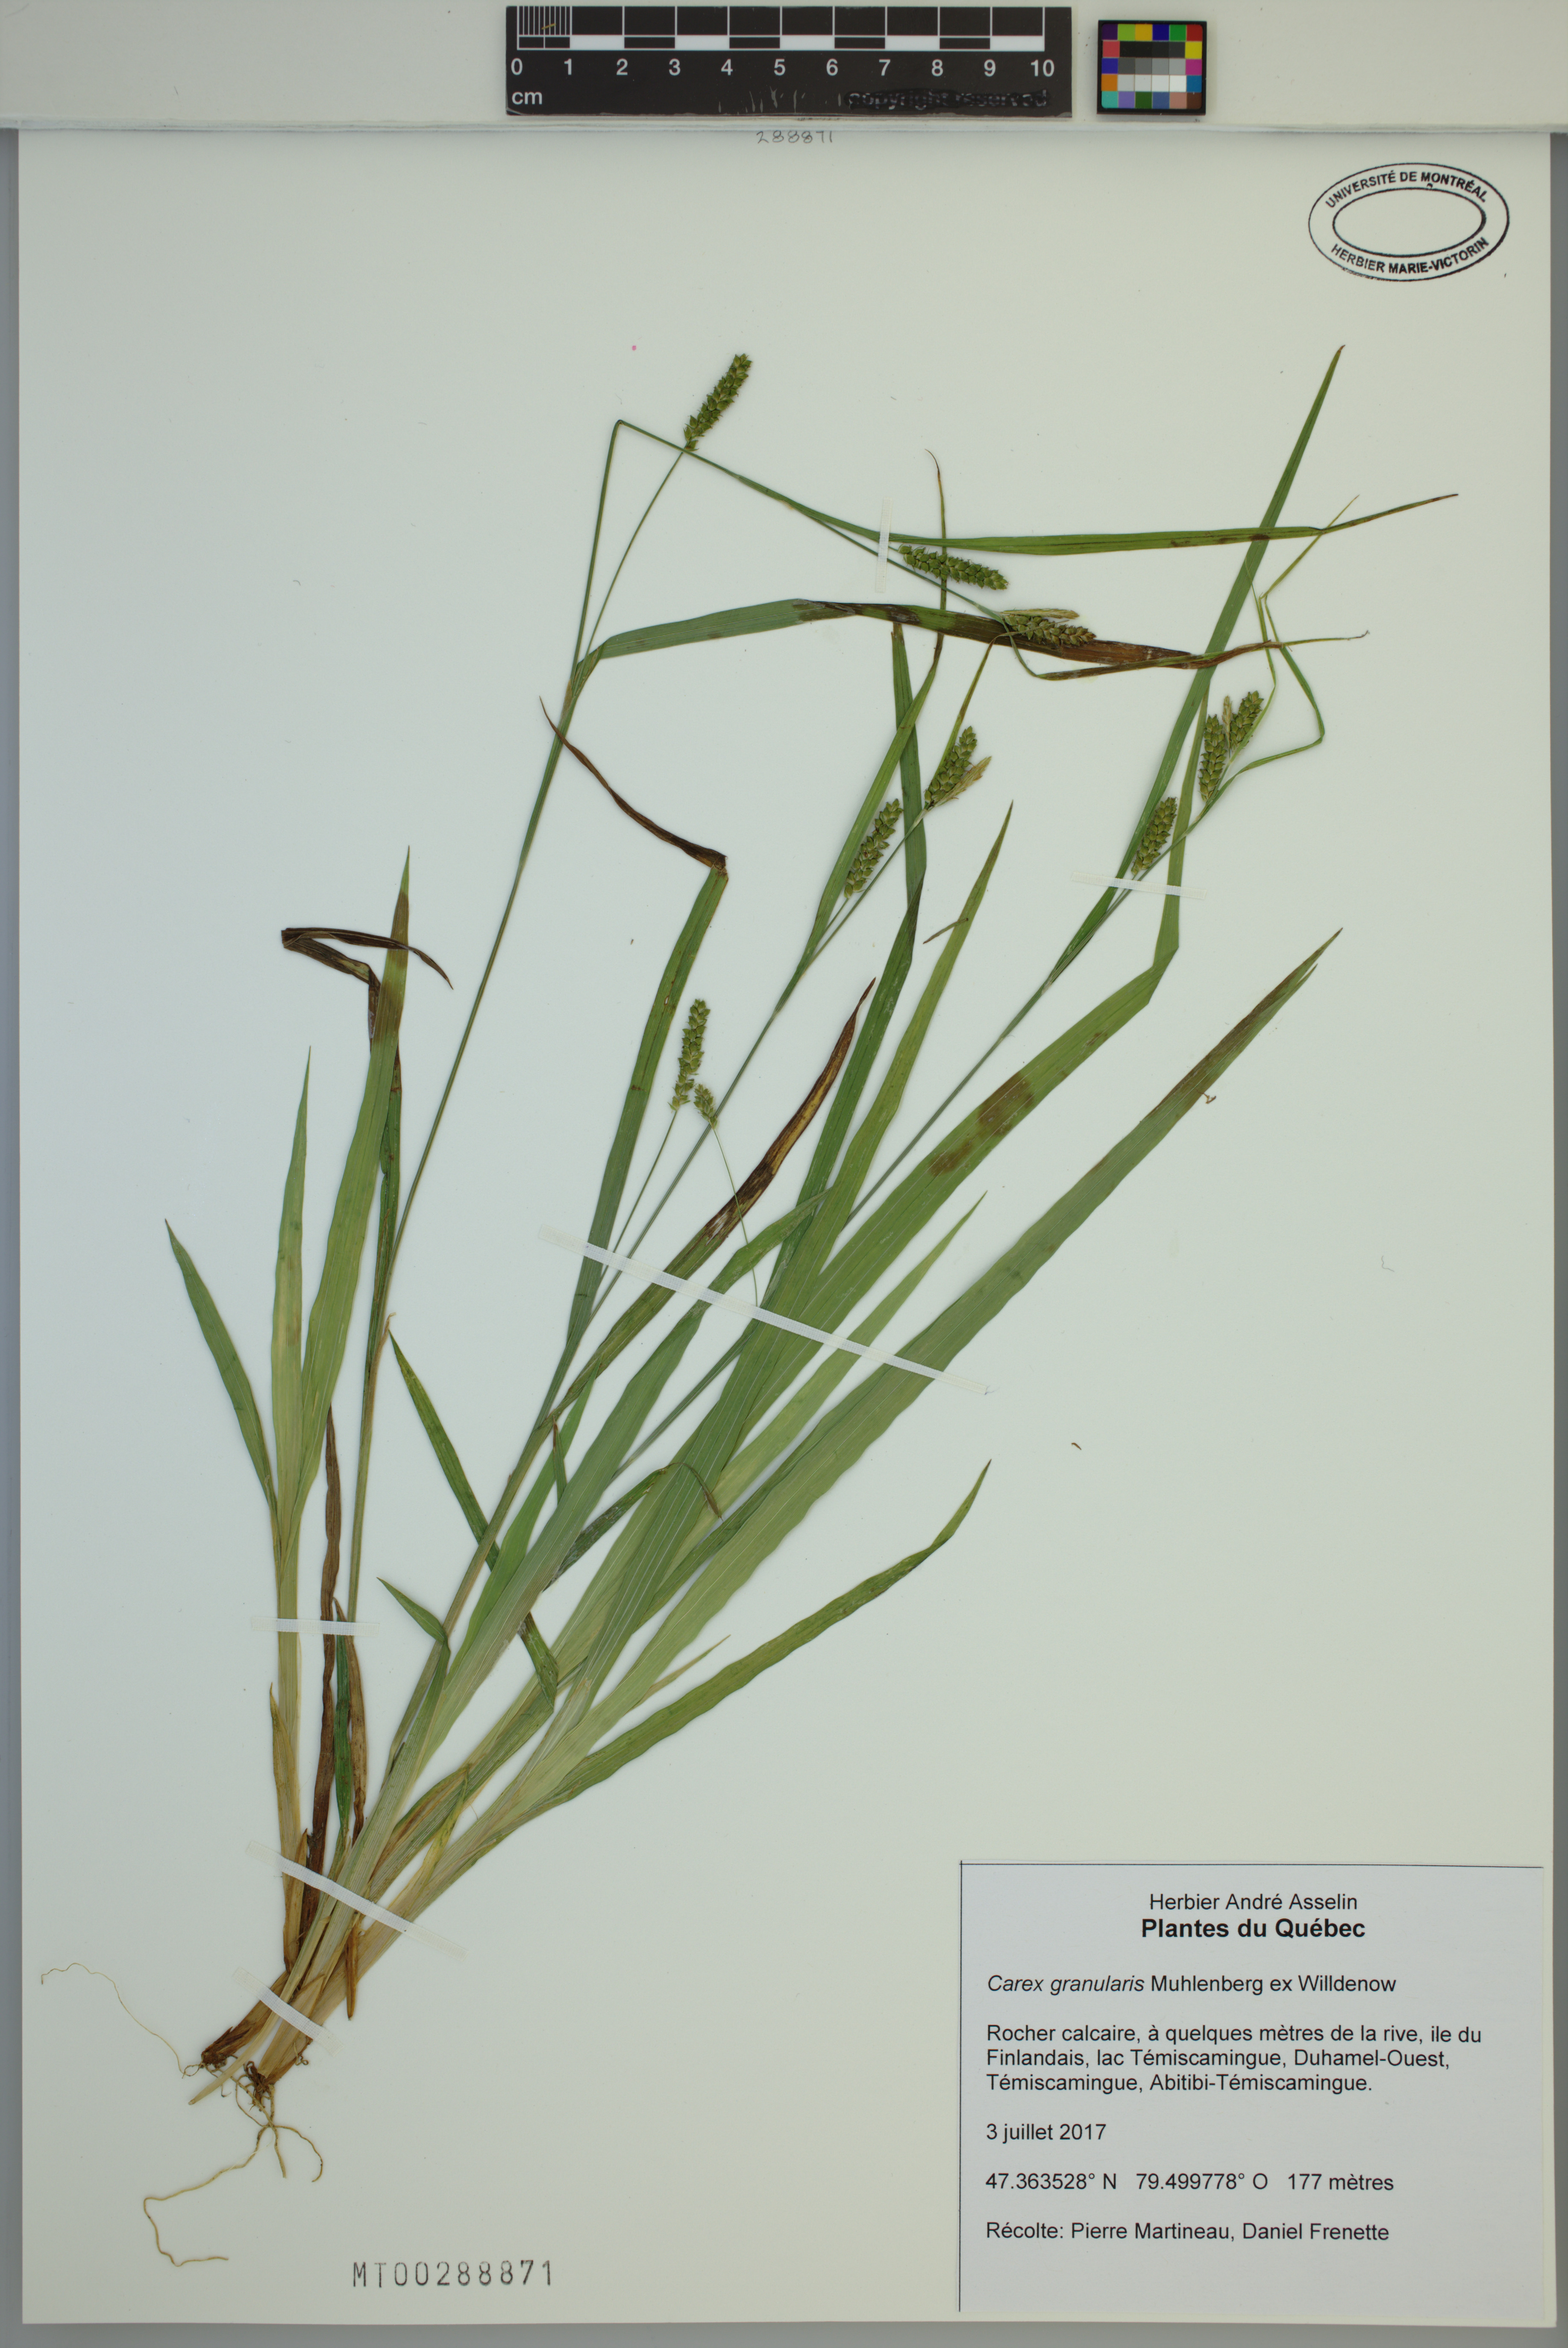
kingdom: Plantae
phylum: Tracheophyta
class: Liliopsida
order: Poales
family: Cyperaceae
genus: Carex
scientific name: Carex granularis
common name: Granular sedge
